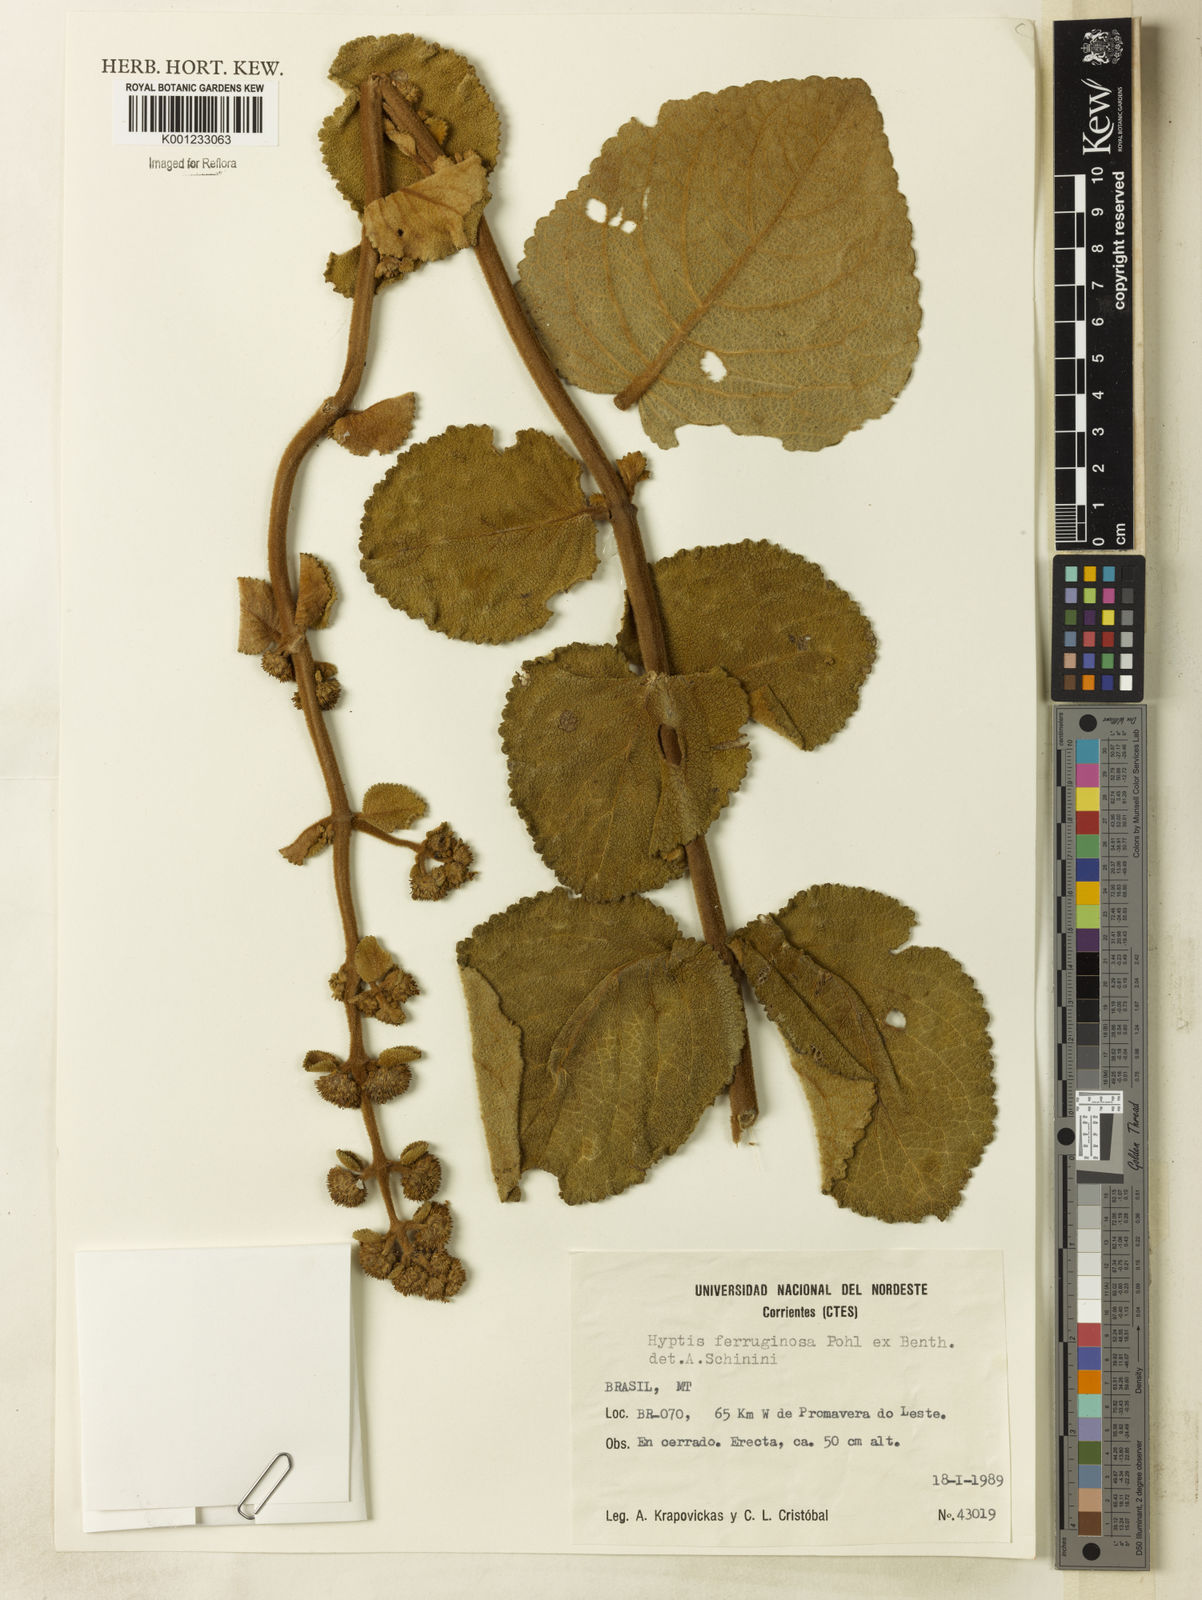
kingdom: Plantae
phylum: Tracheophyta
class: Magnoliopsida
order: Lamiales
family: Lamiaceae
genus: Hyptis
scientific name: Hyptis ferruginosa
